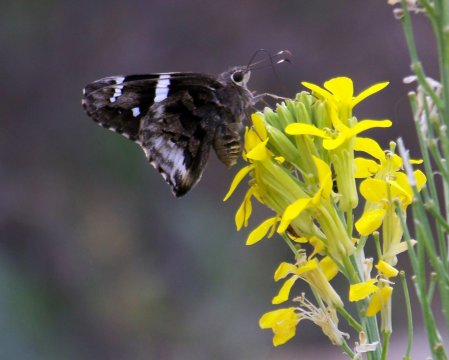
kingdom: Animalia
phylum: Arthropoda
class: Insecta
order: Lepidoptera
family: Hesperiidae
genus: Codatractus
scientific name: Codatractus arizonensis
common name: Arizona Skipper
